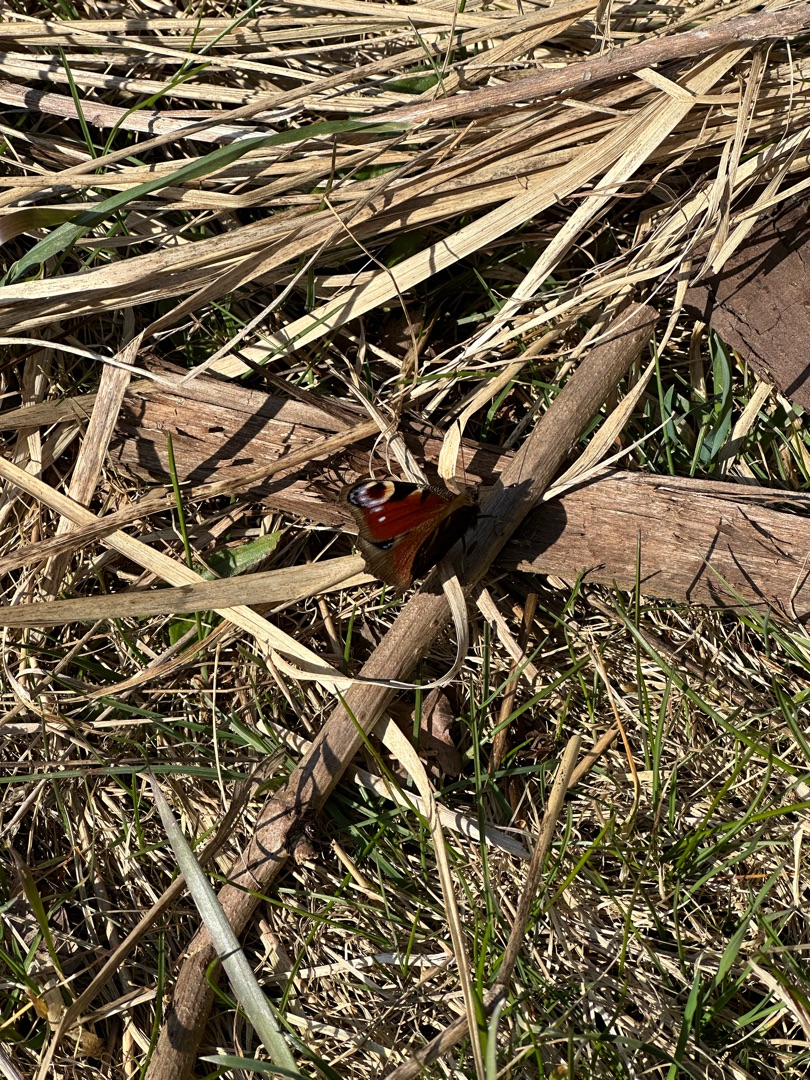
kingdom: Animalia
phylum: Arthropoda
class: Insecta
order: Lepidoptera
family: Nymphalidae
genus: Aglais
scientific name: Aglais io
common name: Dagpåfugleøje
